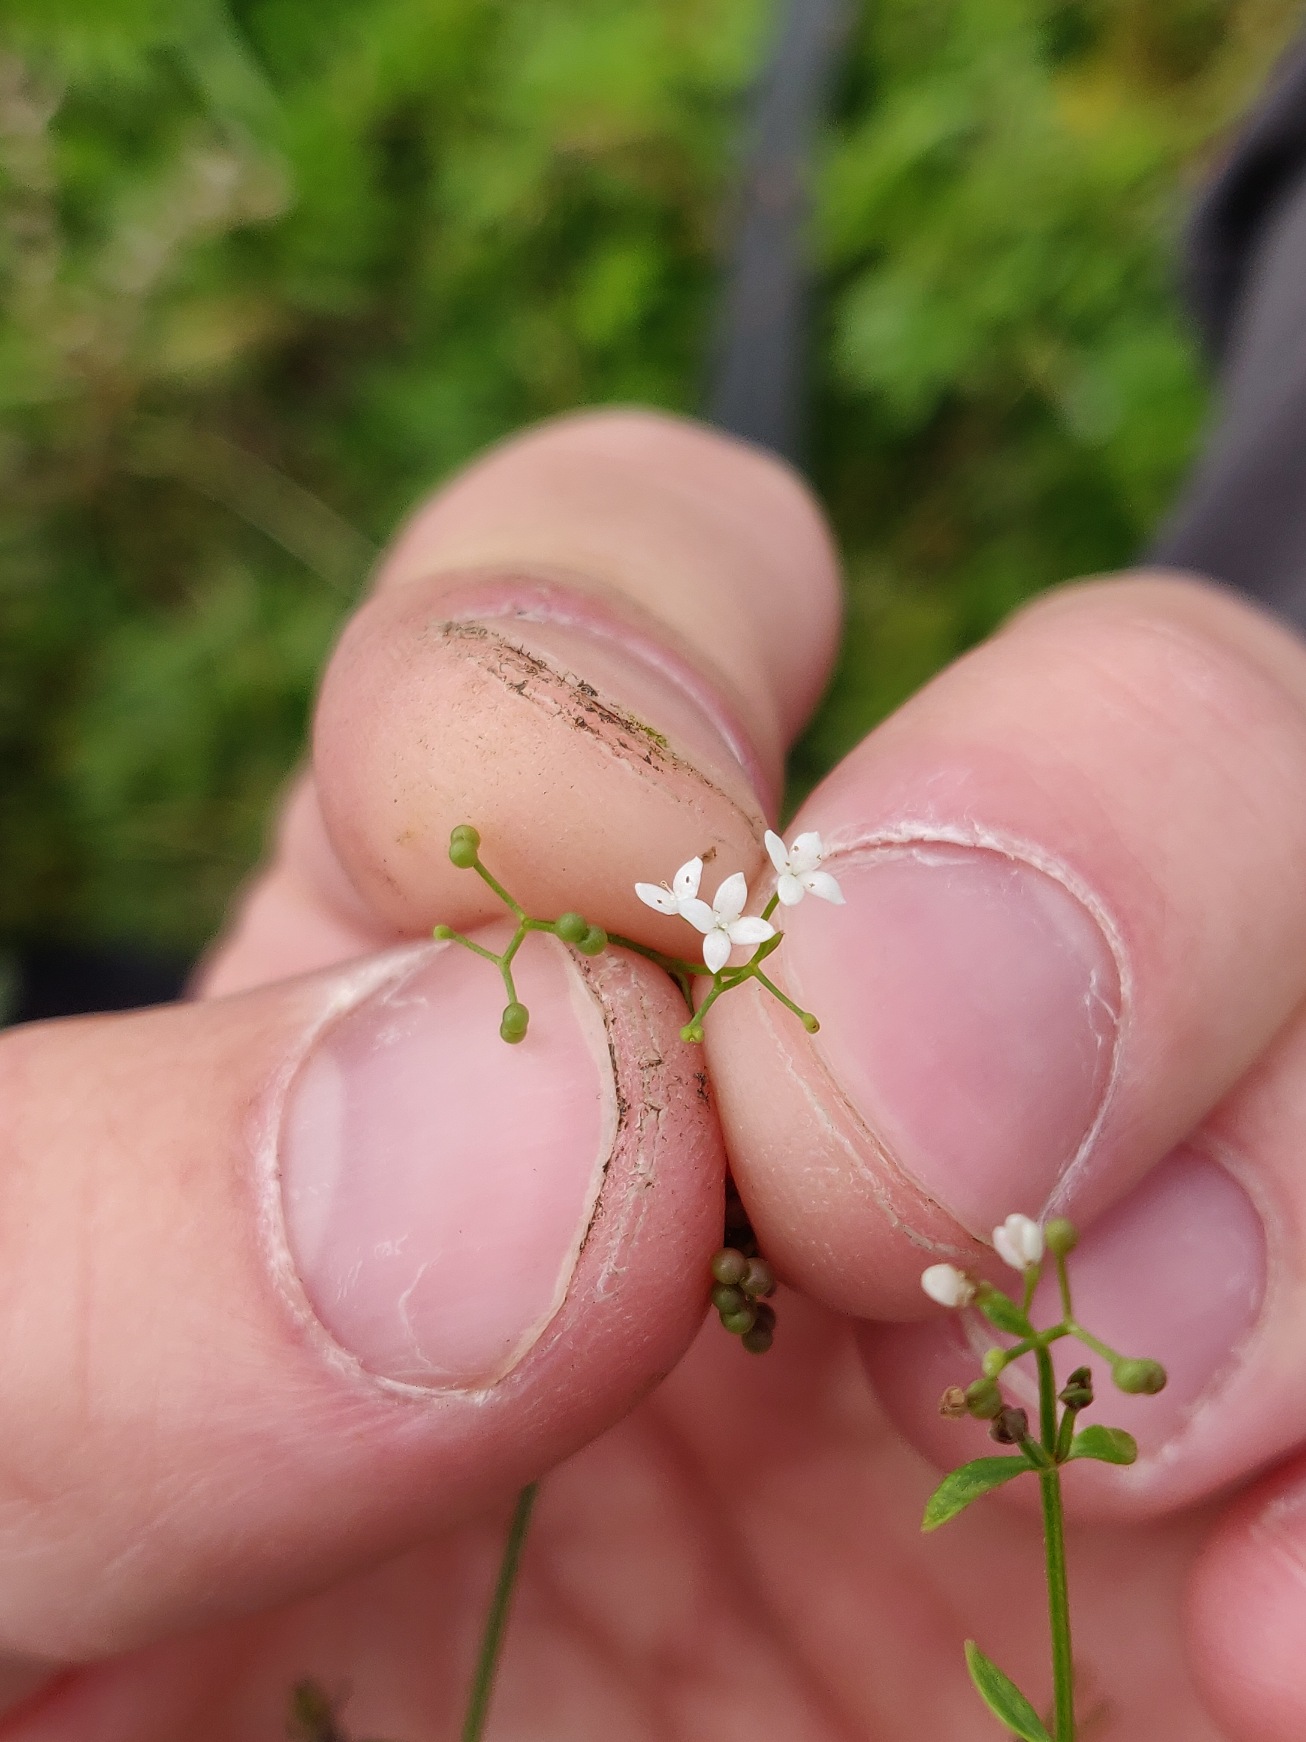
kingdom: Plantae
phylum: Tracheophyta
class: Magnoliopsida
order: Gentianales
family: Rubiaceae
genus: Galium
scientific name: Galium palustre
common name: Kær-snerre
